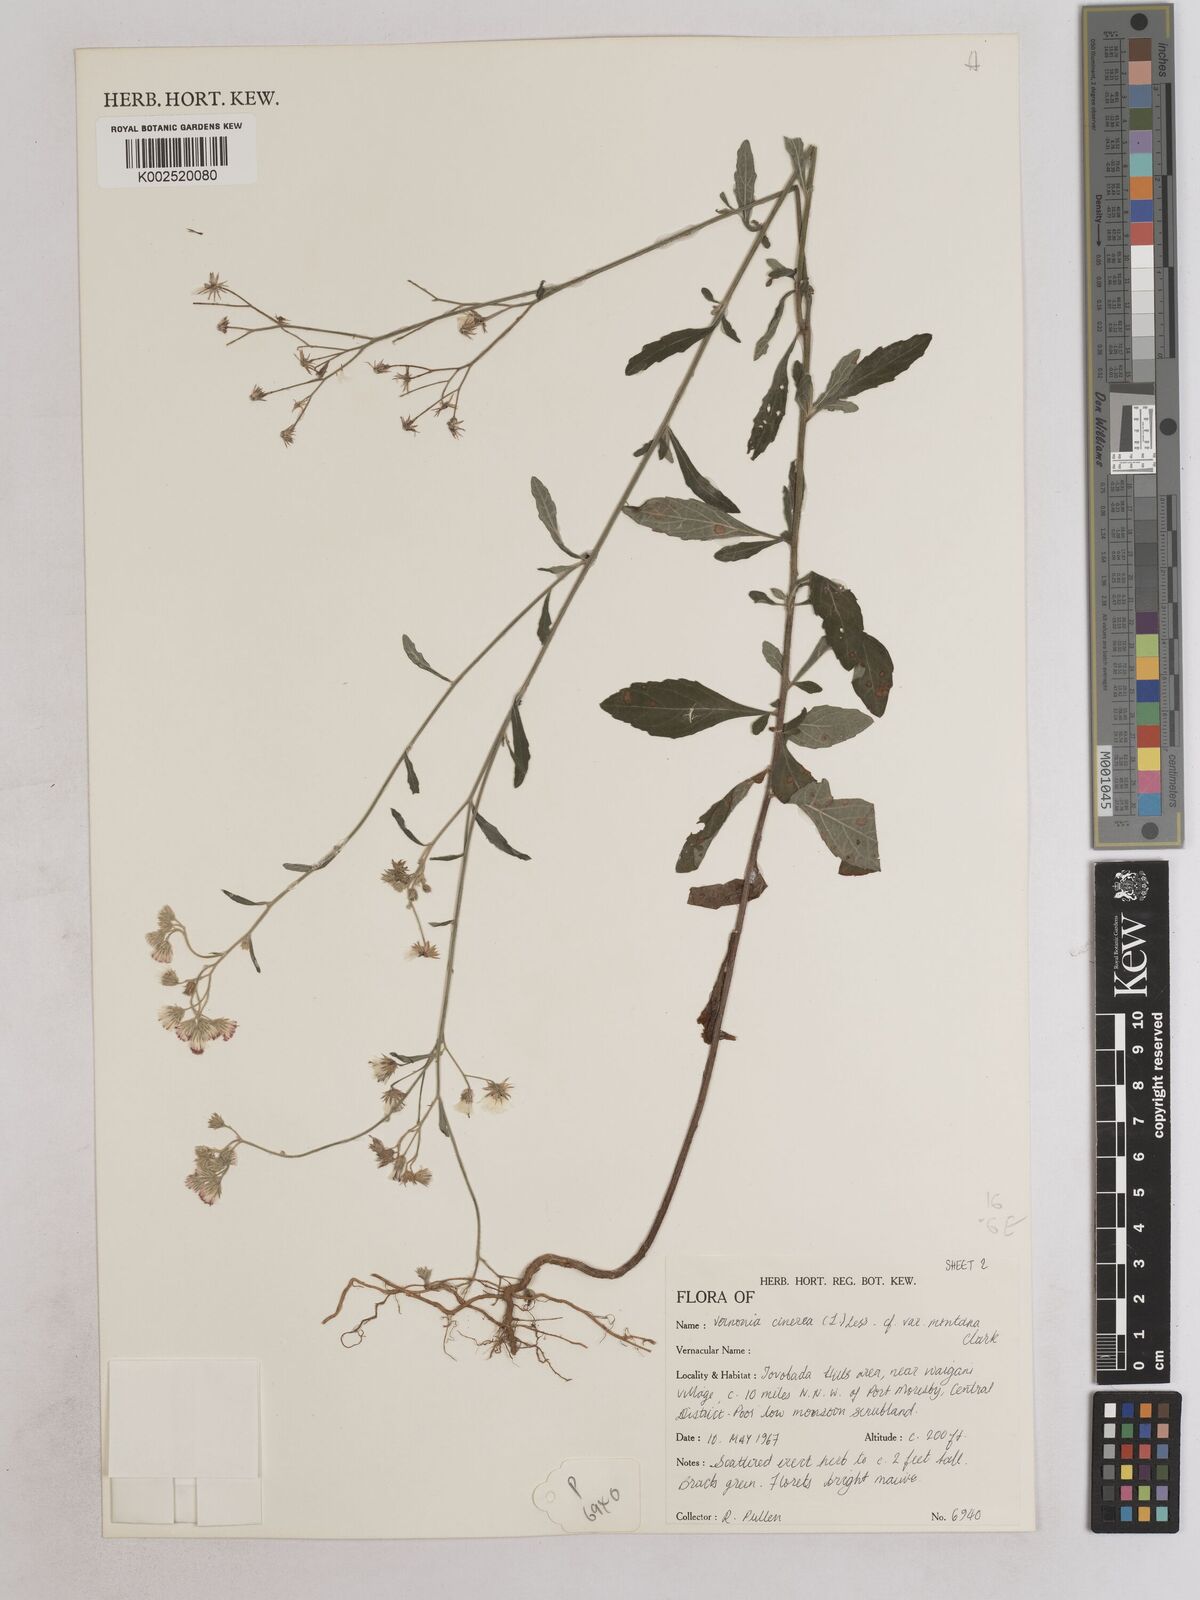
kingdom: Plantae
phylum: Tracheophyta
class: Magnoliopsida
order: Asterales
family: Asteraceae
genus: Cyanthillium
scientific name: Cyanthillium montanum
